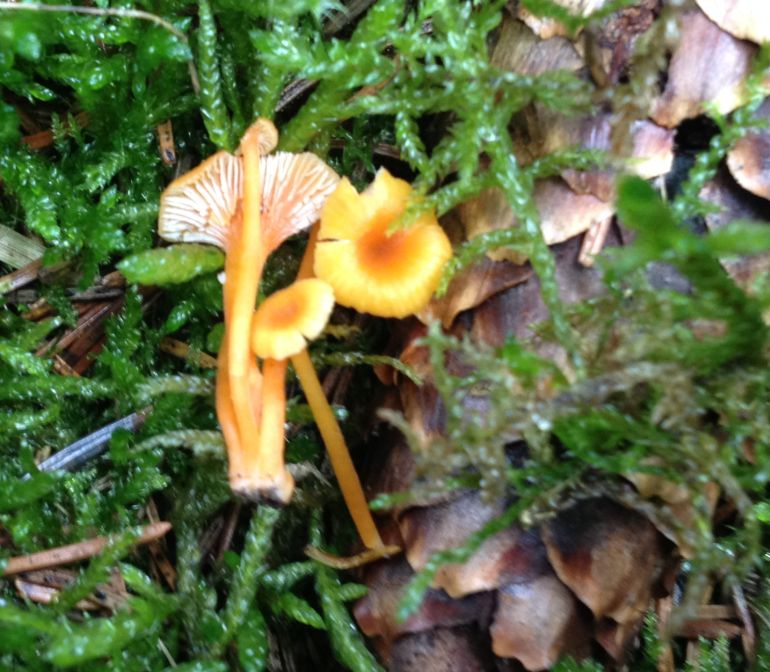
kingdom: Fungi
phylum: Basidiomycota
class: Agaricomycetes
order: Hymenochaetales
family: Rickenellaceae
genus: Rickenella
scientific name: Rickenella fibula
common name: orange mosnavlehat
